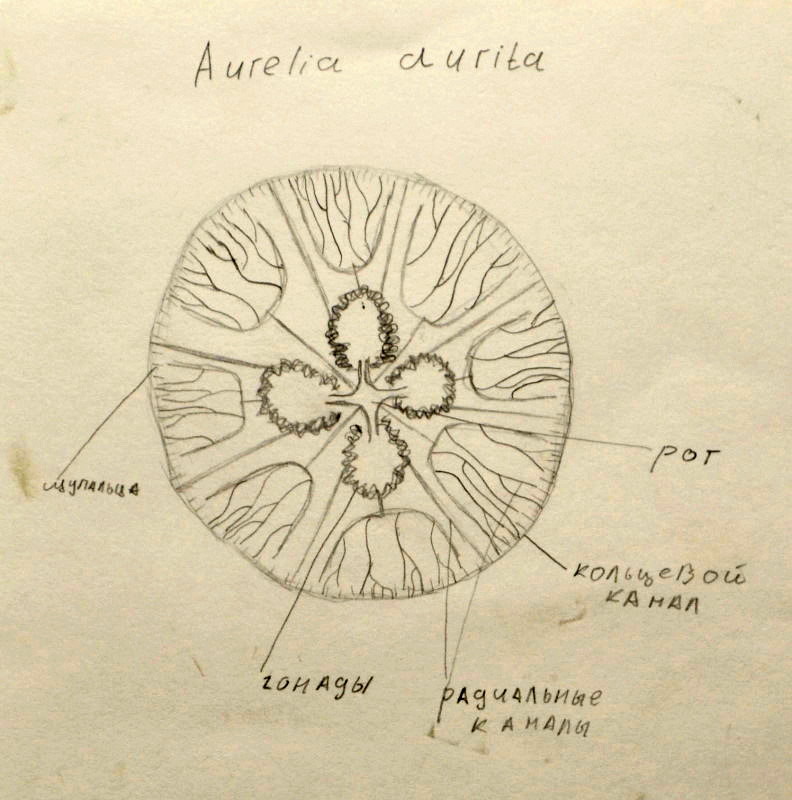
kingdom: Animalia
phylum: Cnidaria
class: Scyphozoa
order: Semaeostomeae
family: Ulmaridae
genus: Aurelia
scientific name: Aurelia aurita
